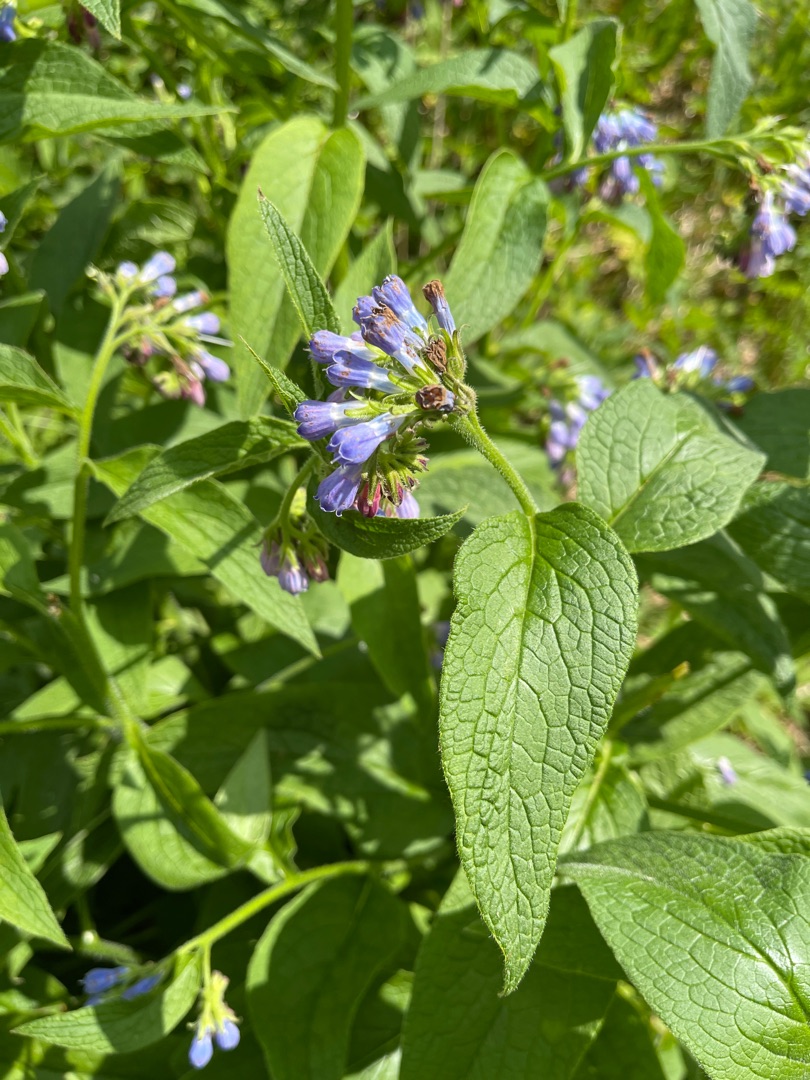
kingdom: Plantae
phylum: Tracheophyta
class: Magnoliopsida
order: Boraginales
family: Boraginaceae
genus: Symphytum
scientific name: Symphytum uplandicum
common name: Foder-kulsukker
